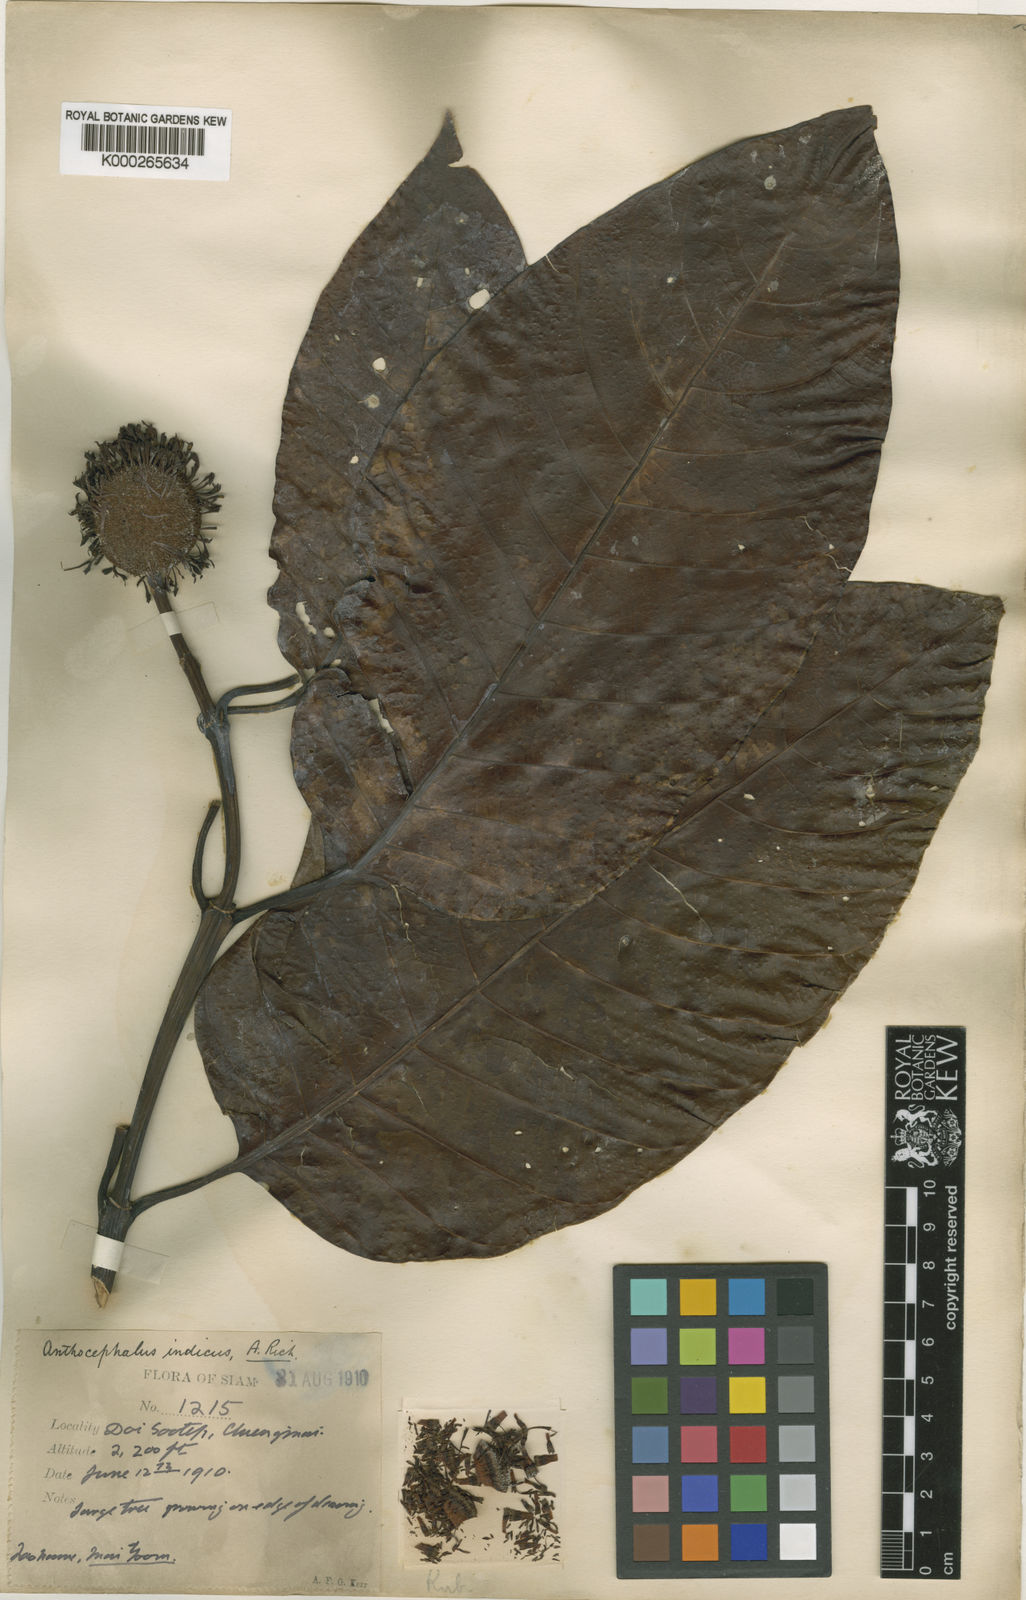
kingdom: Plantae
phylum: Tracheophyta
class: Magnoliopsida
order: Gentianales
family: Rubiaceae
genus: Neolamarckia
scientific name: Neolamarckia cadamba
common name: Leichhardt-pine
